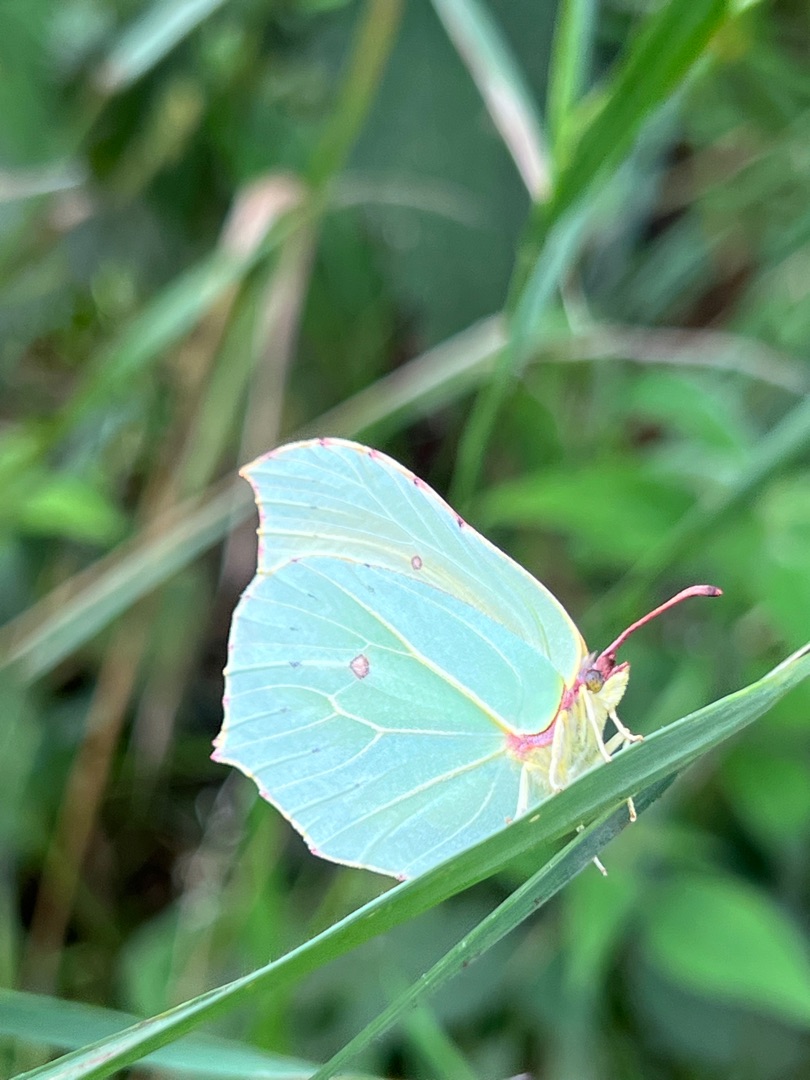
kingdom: Animalia
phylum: Arthropoda
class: Insecta
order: Lepidoptera
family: Pieridae
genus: Gonepteryx
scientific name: Gonepteryx rhamni
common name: Citronsommerfugl
